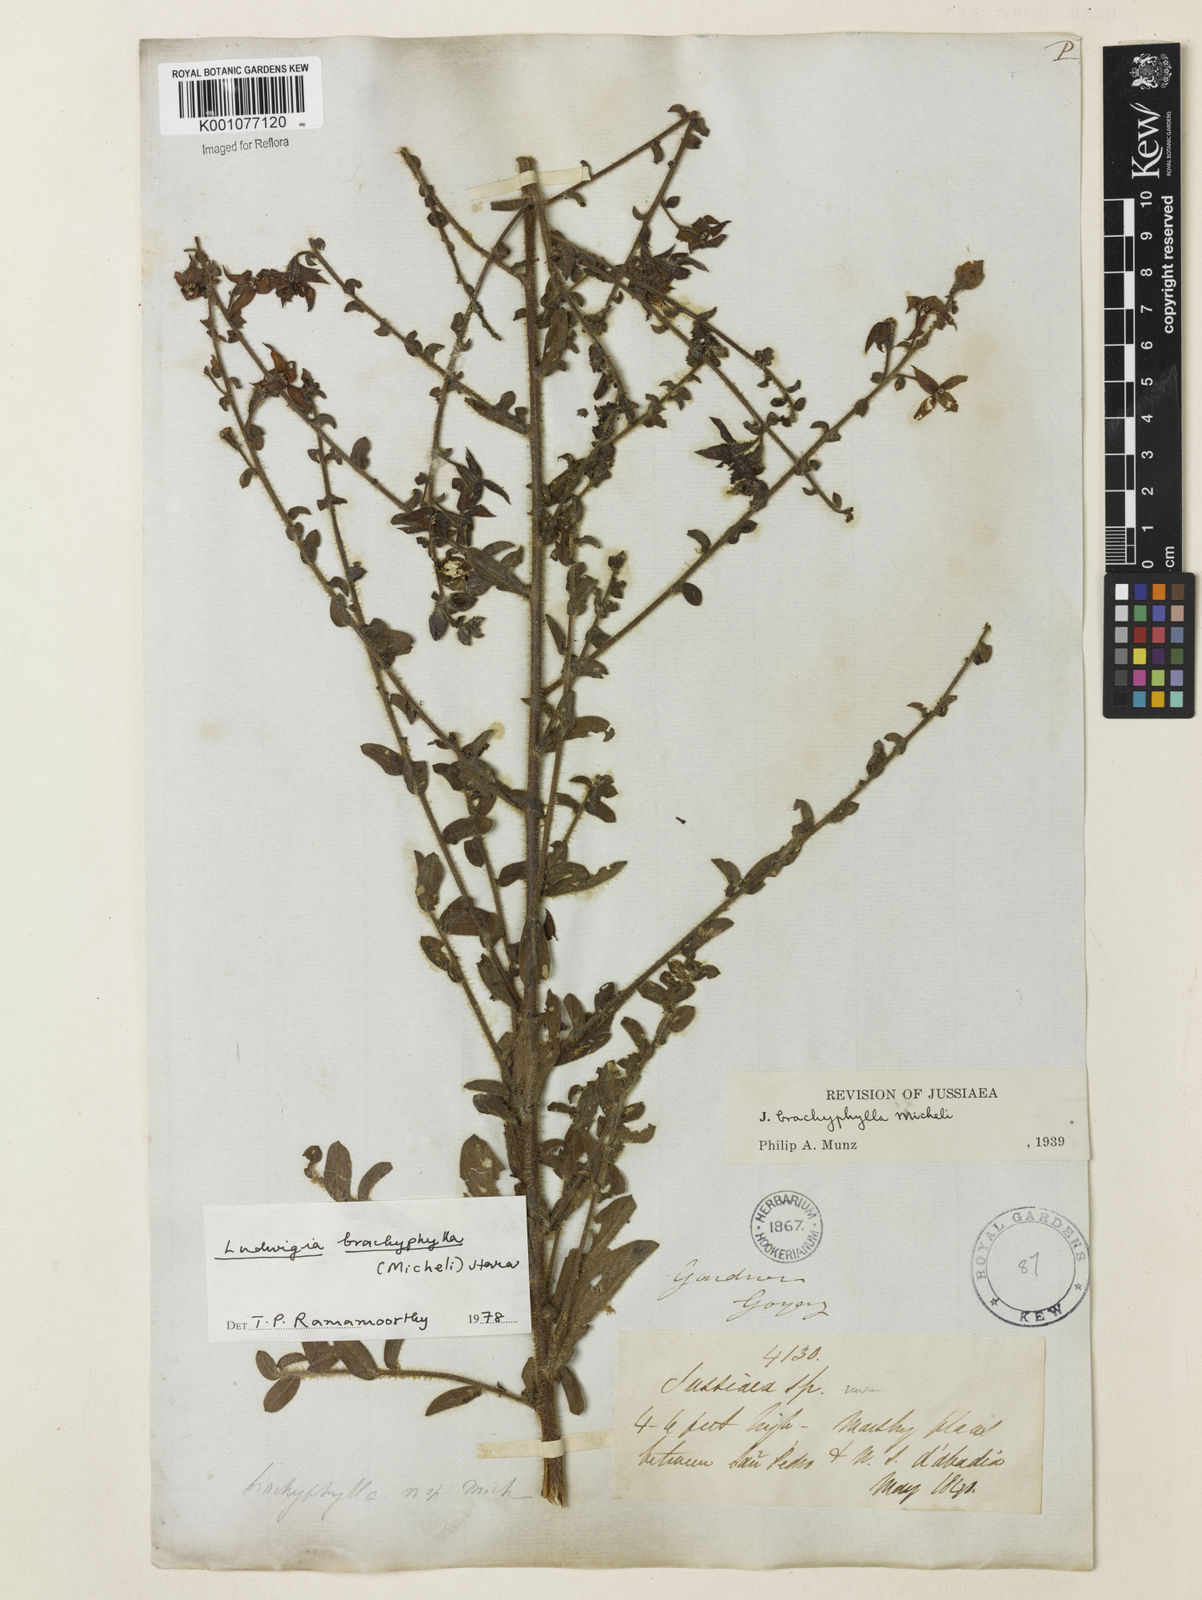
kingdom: Plantae
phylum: Tracheophyta
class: Magnoliopsida
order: Myrtales
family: Onagraceae
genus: Ludwigia
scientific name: Ludwigia brachyphylla
